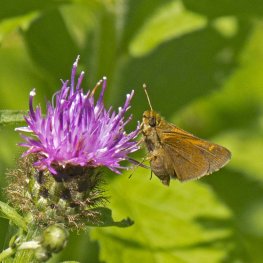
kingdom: Animalia
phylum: Arthropoda
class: Insecta
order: Lepidoptera
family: Hesperiidae
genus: Polites
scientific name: Polites themistocles
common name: Tawny-edged Skipper
